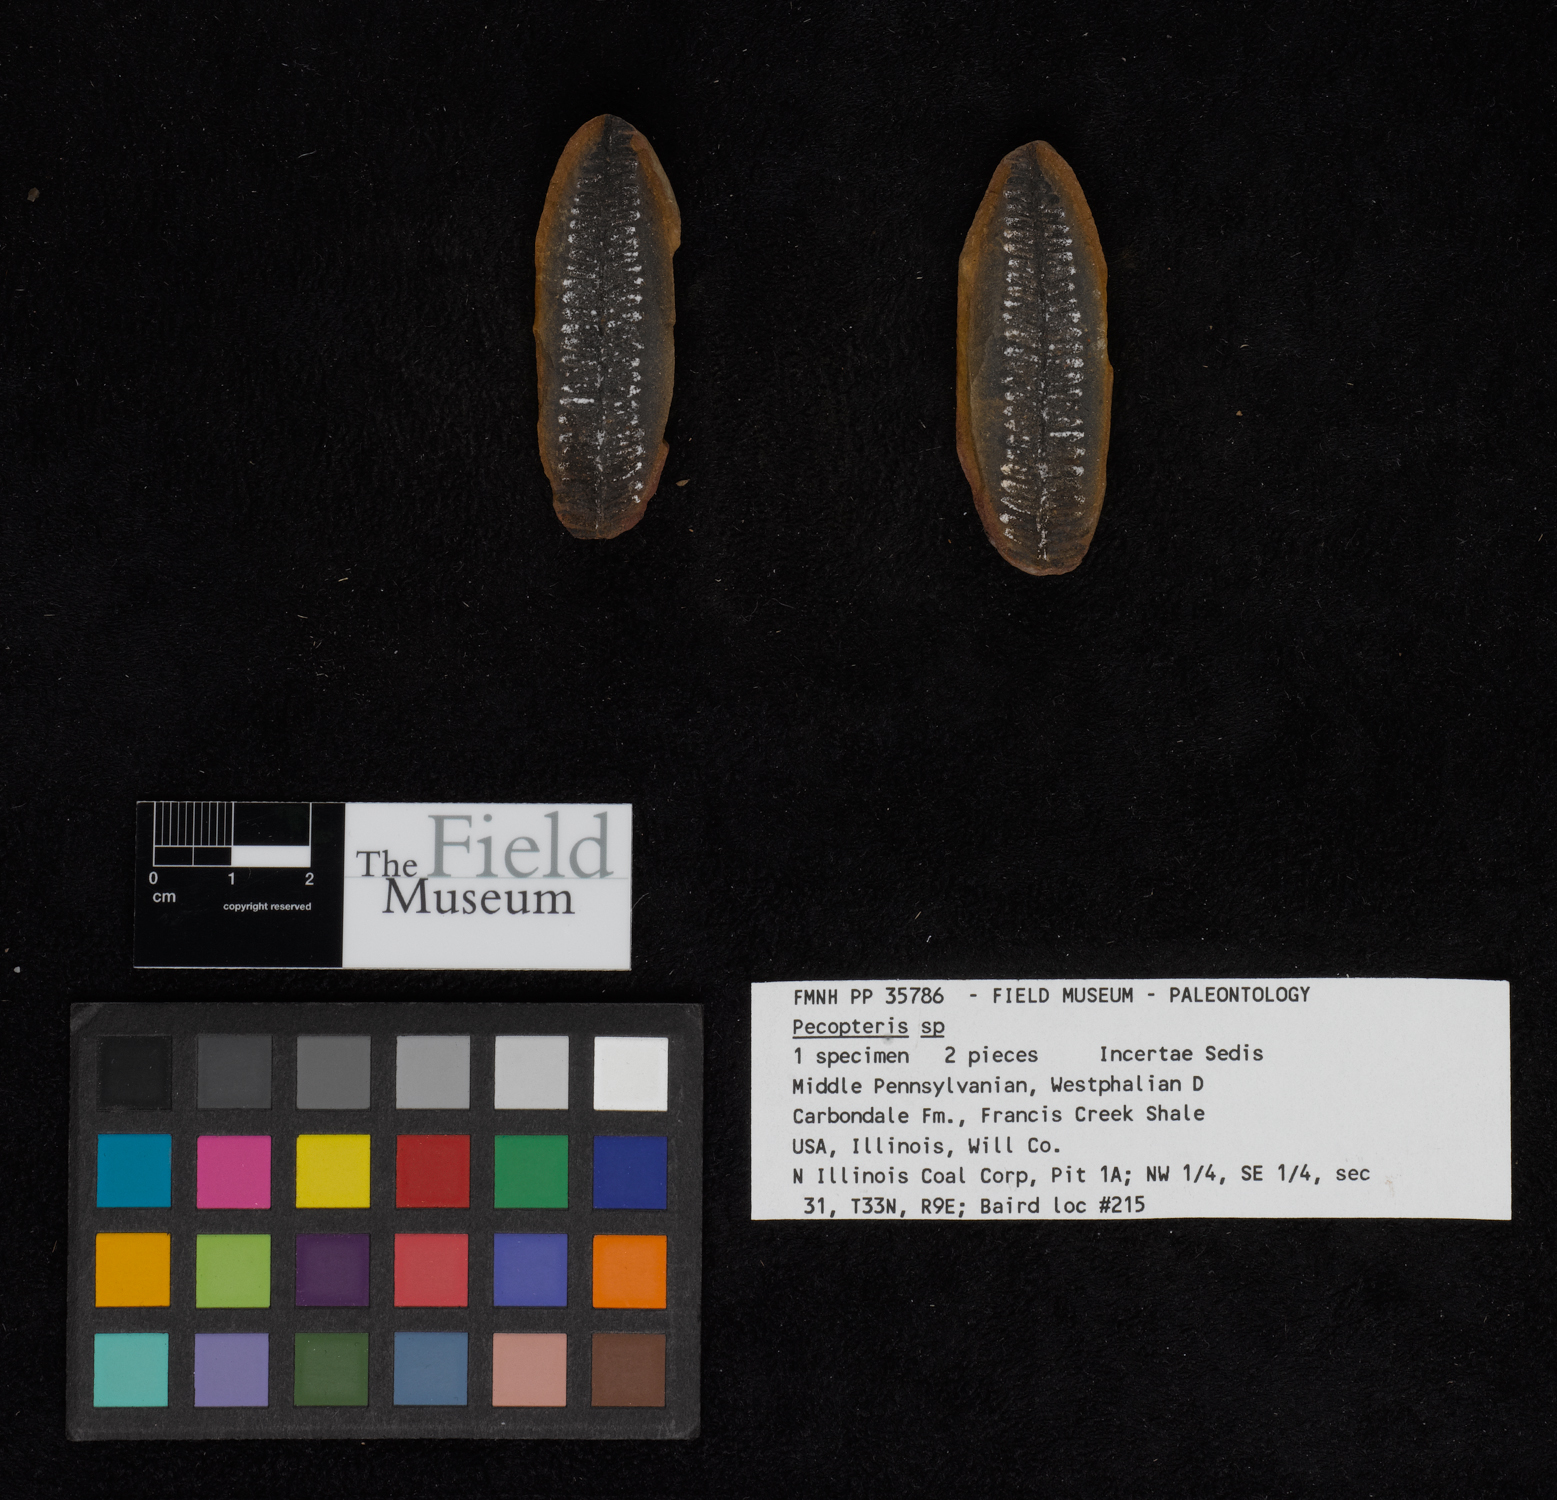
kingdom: Plantae
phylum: Tracheophyta
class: Polypodiopsida
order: Marattiales
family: Asterothecaceae
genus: Pecopteris
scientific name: Pecopteris
